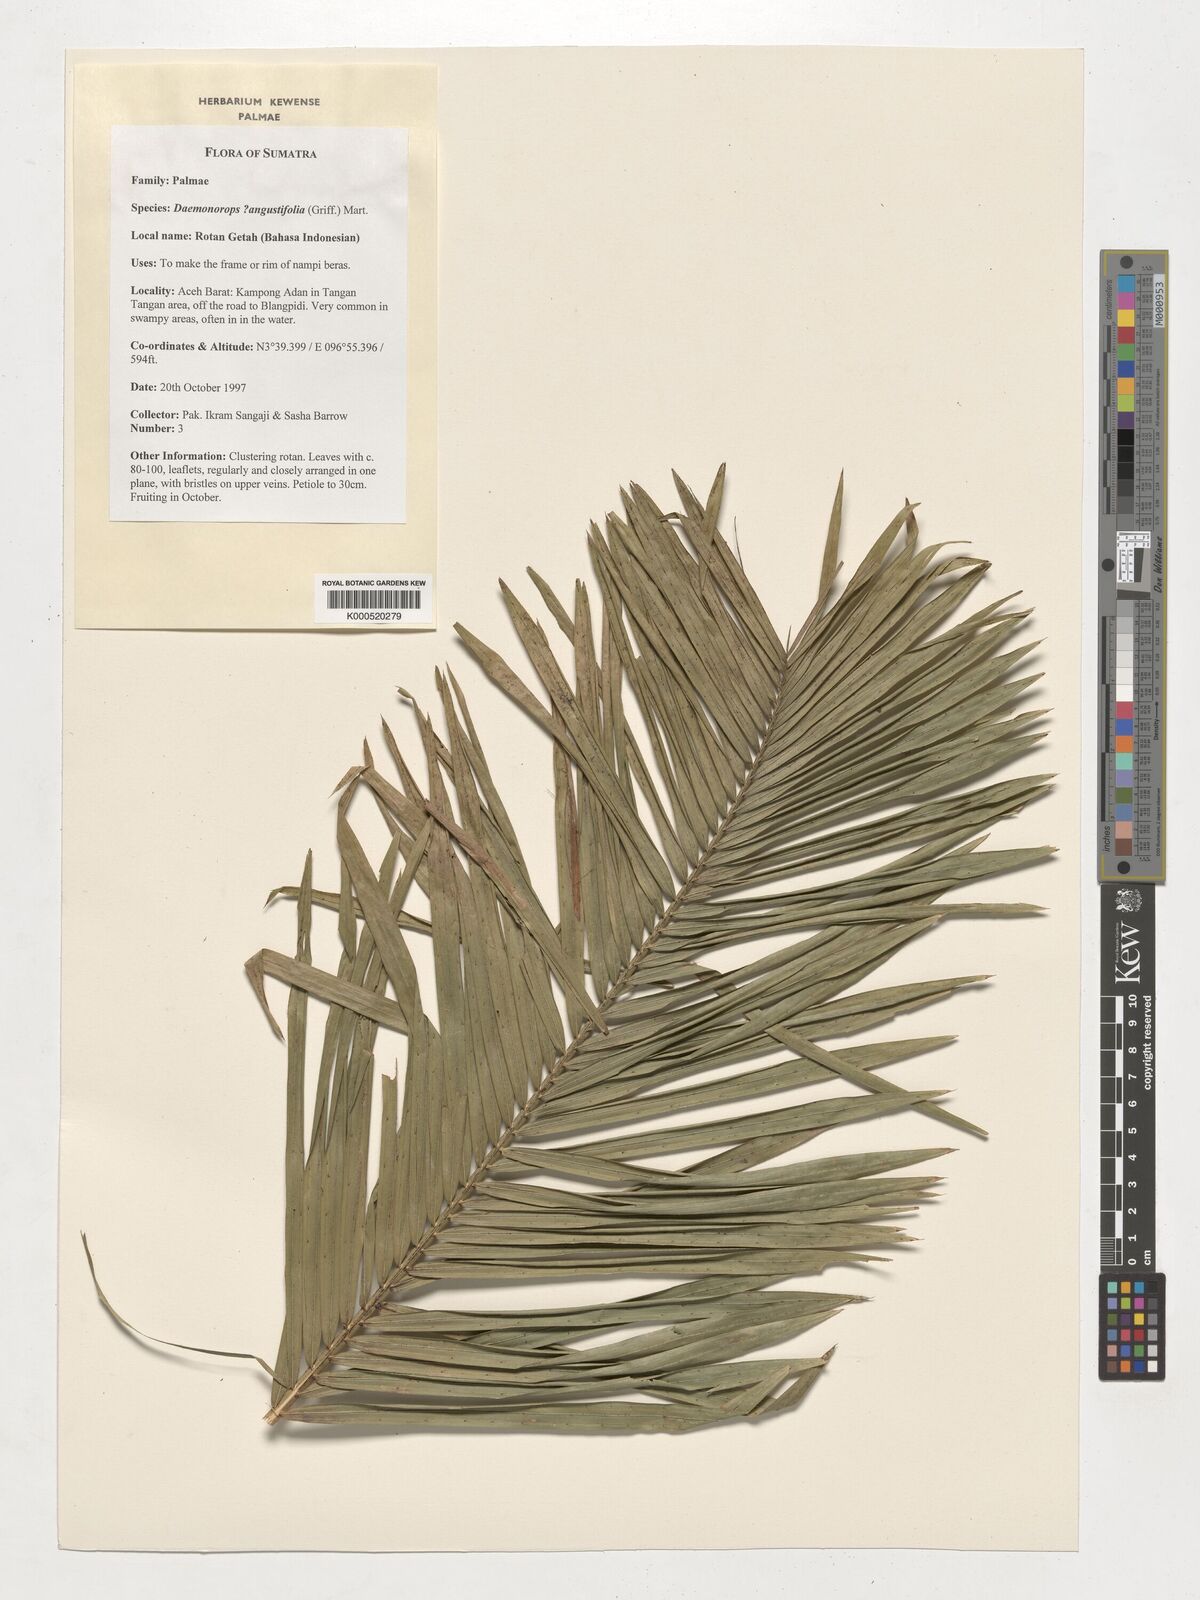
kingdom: Plantae
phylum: Tracheophyta
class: Liliopsida
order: Arecales
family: Arecaceae
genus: Calamus
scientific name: Calamus melanochaetes
